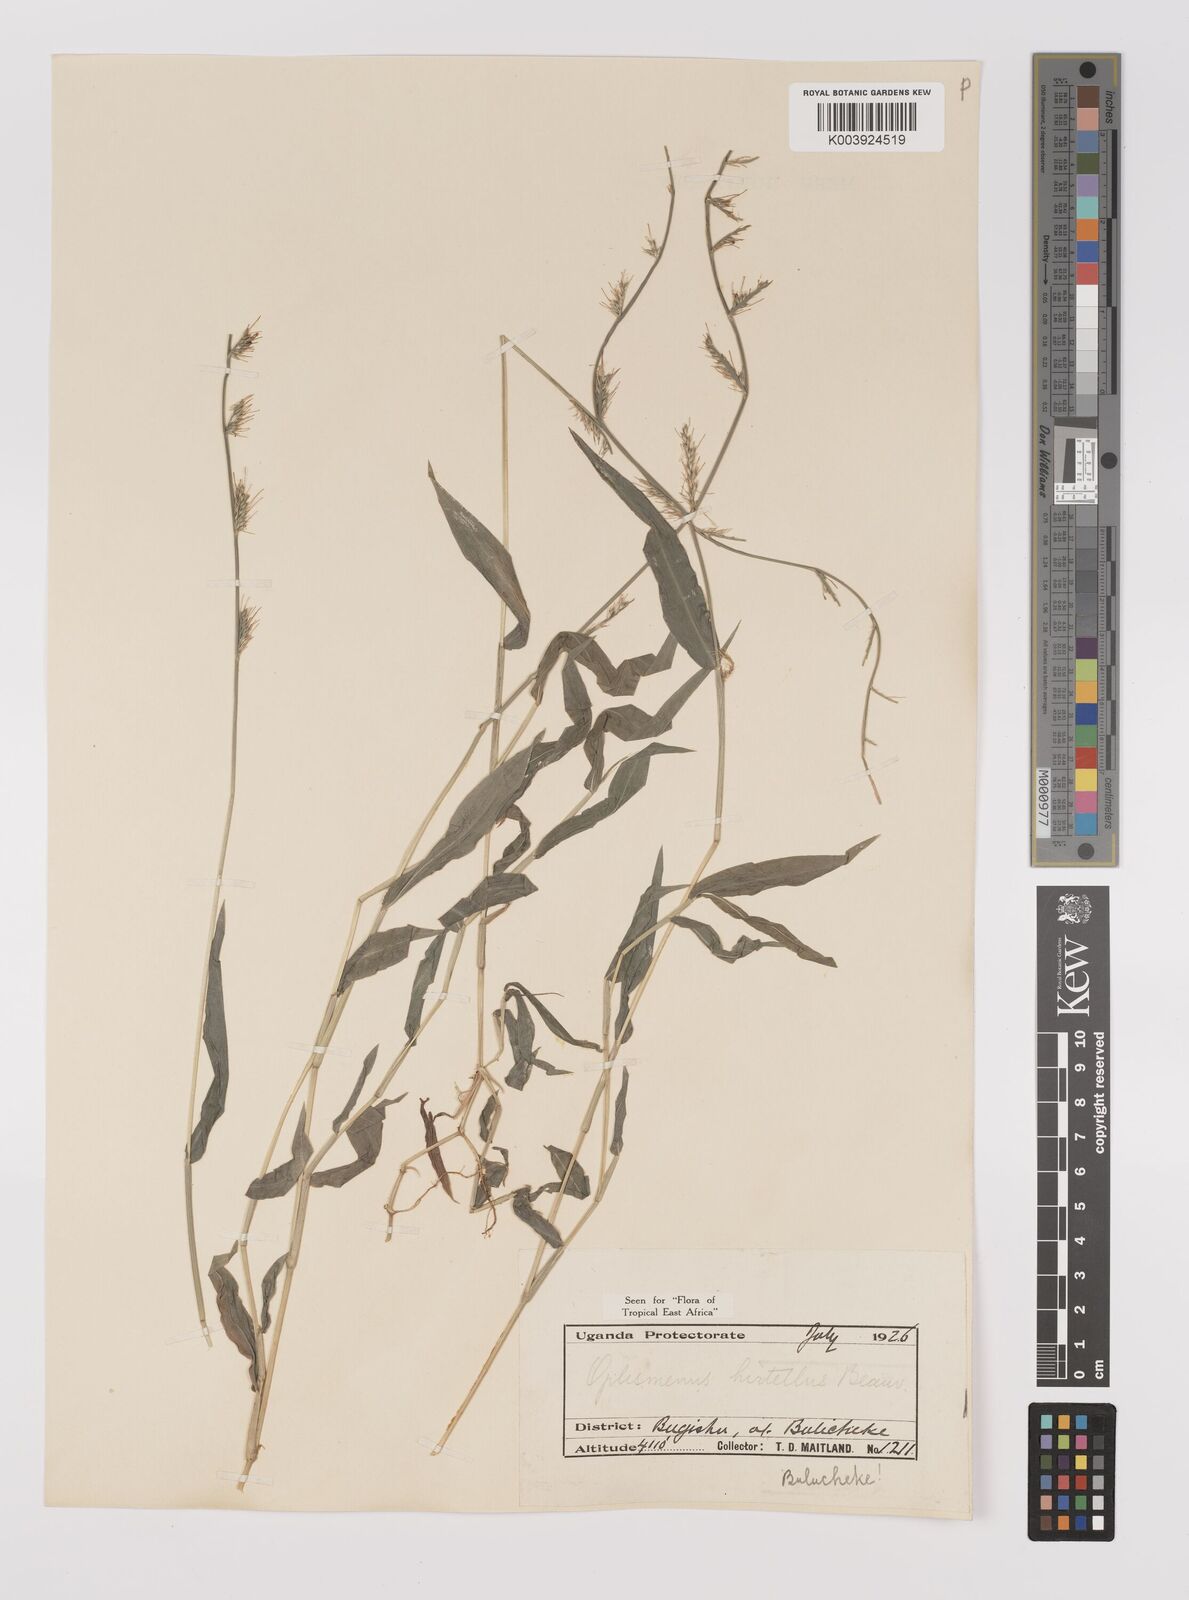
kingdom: Plantae
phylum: Tracheophyta
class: Liliopsida
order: Poales
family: Poaceae
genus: Oplismenus
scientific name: Oplismenus hirtellus
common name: Basketgrass
